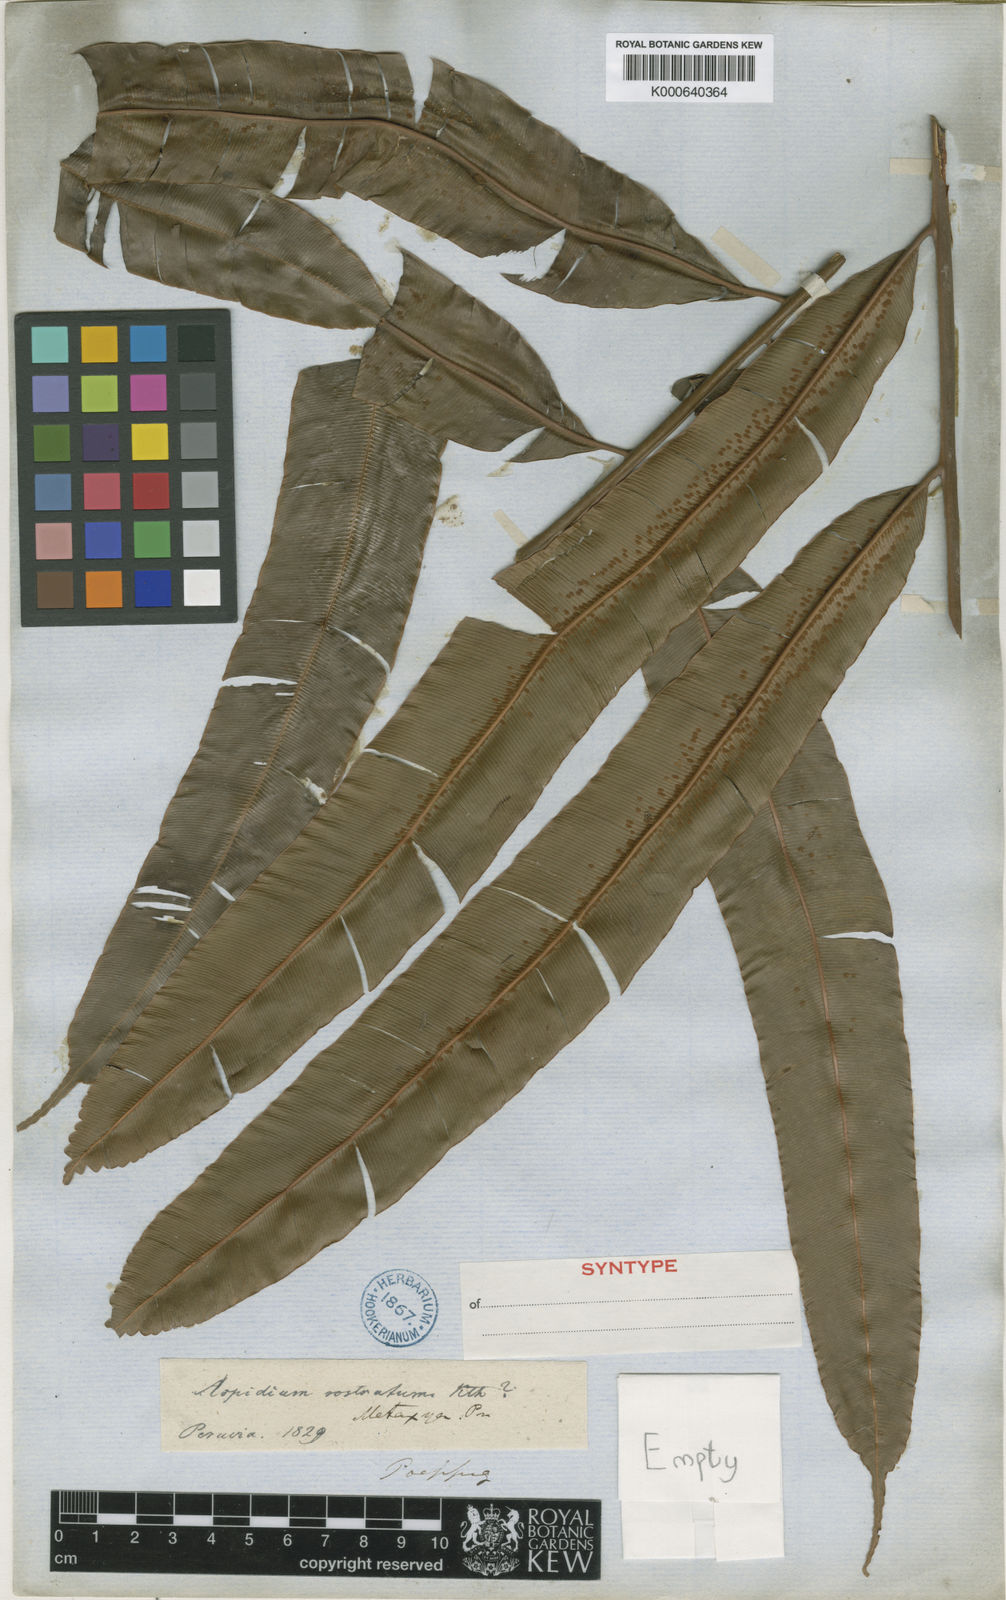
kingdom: Plantae
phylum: Tracheophyta
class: Polypodiopsida
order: Cyatheales
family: Metaxyaceae
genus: Metaxya
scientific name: Metaxya rostrata
